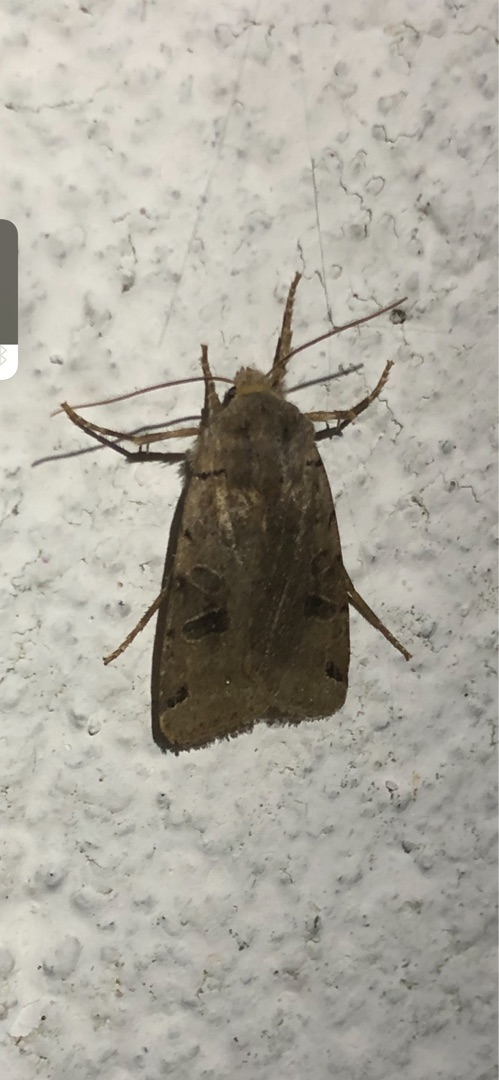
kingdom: Animalia
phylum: Arthropoda
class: Insecta
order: Lepidoptera
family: Noctuidae
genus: Agrochola
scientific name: Agrochola litura
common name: Kantplettet jordfarveugle
